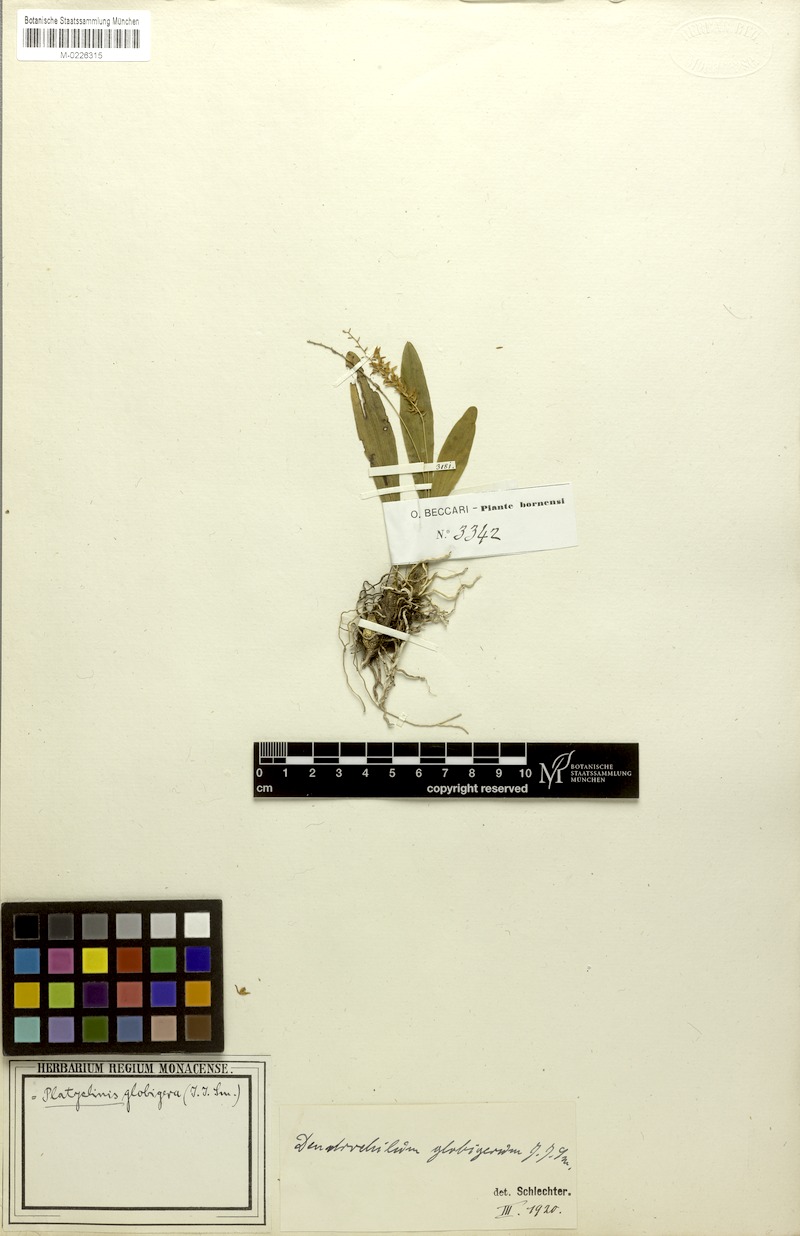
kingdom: Plantae
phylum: Tracheophyta
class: Liliopsida
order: Asparagales
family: Orchidaceae
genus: Coelogyne
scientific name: Coelogyne globigera
